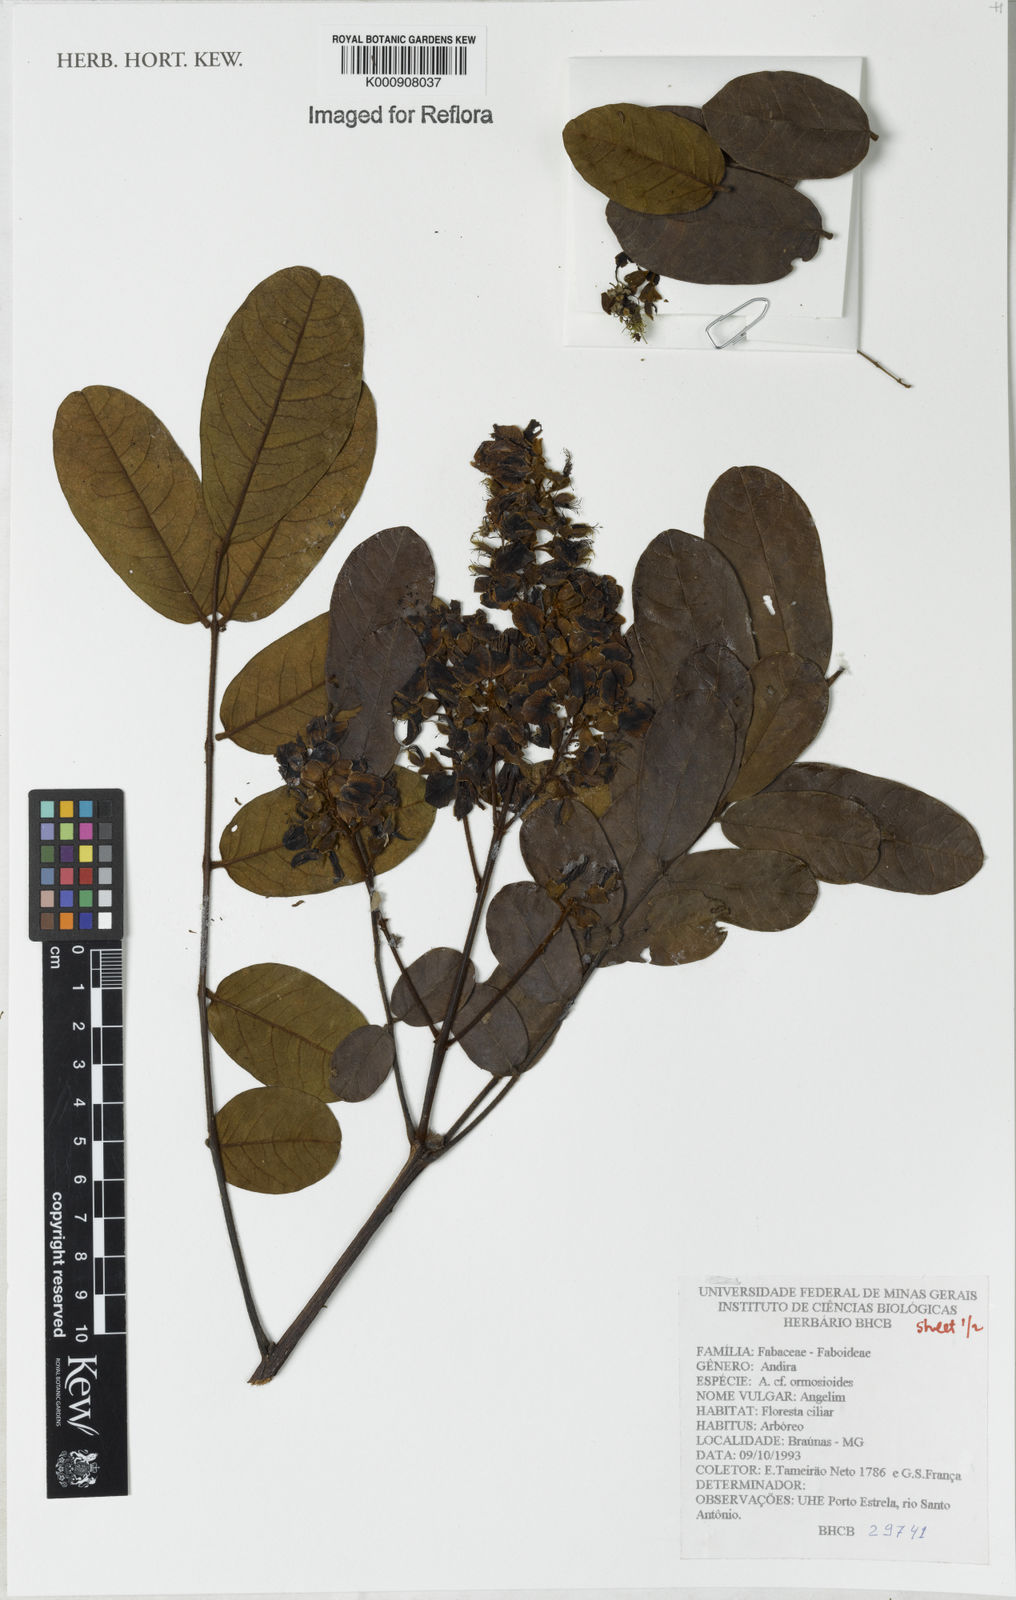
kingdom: Plantae
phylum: Tracheophyta
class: Magnoliopsida
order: Fabales
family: Fabaceae
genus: Andira
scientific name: Andira
